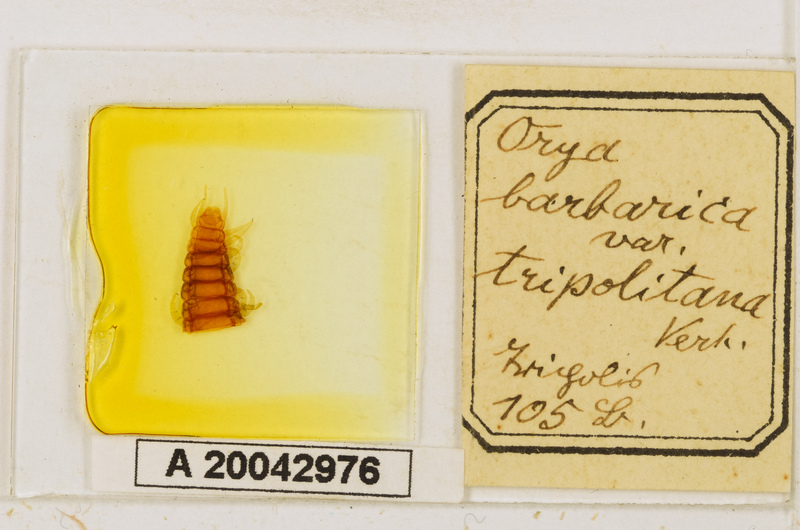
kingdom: Animalia
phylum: Arthropoda
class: Chilopoda
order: Geophilomorpha
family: Oryidae
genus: Orya
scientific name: Orya barbarica
